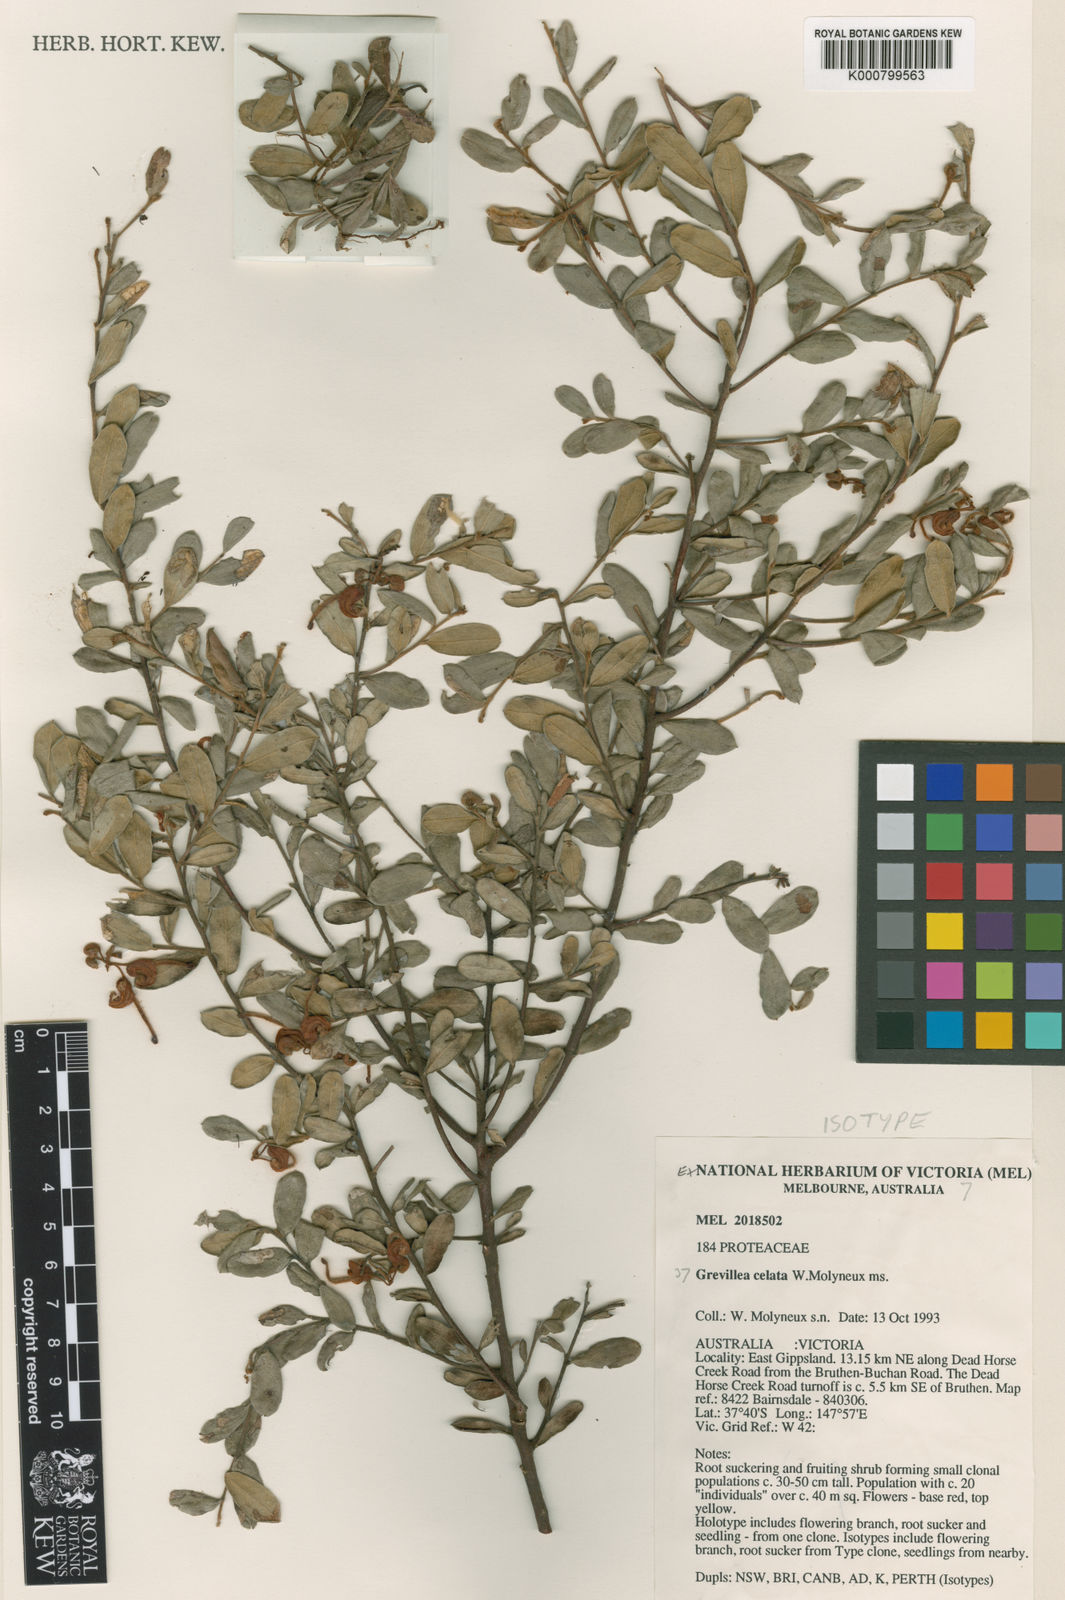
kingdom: Plantae
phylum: Tracheophyta
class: Magnoliopsida
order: Proteales
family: Proteaceae
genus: Grevillea
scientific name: Grevillea celata
